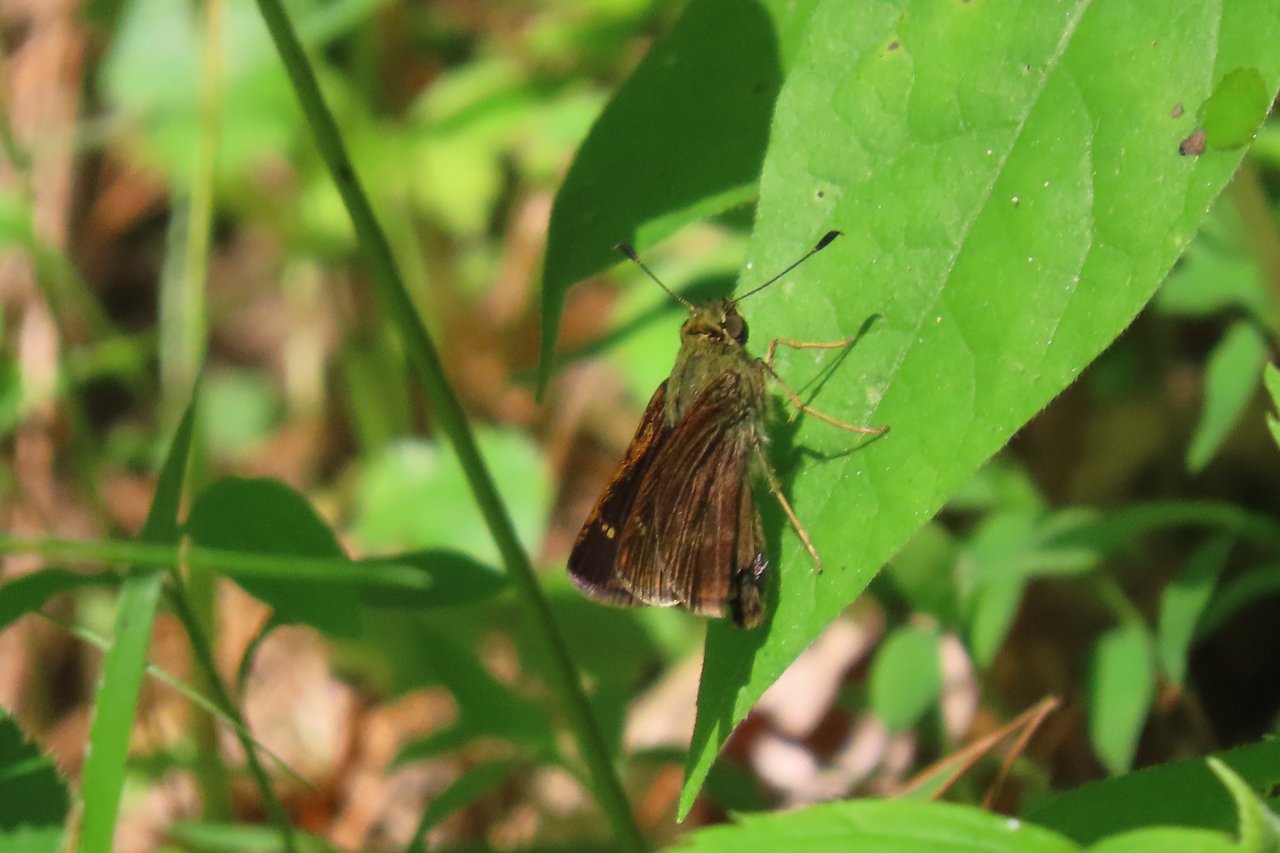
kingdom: Animalia
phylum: Arthropoda
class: Insecta
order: Lepidoptera
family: Hesperiidae
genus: Polites
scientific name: Polites egeremet
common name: Northern Broken-Dash
